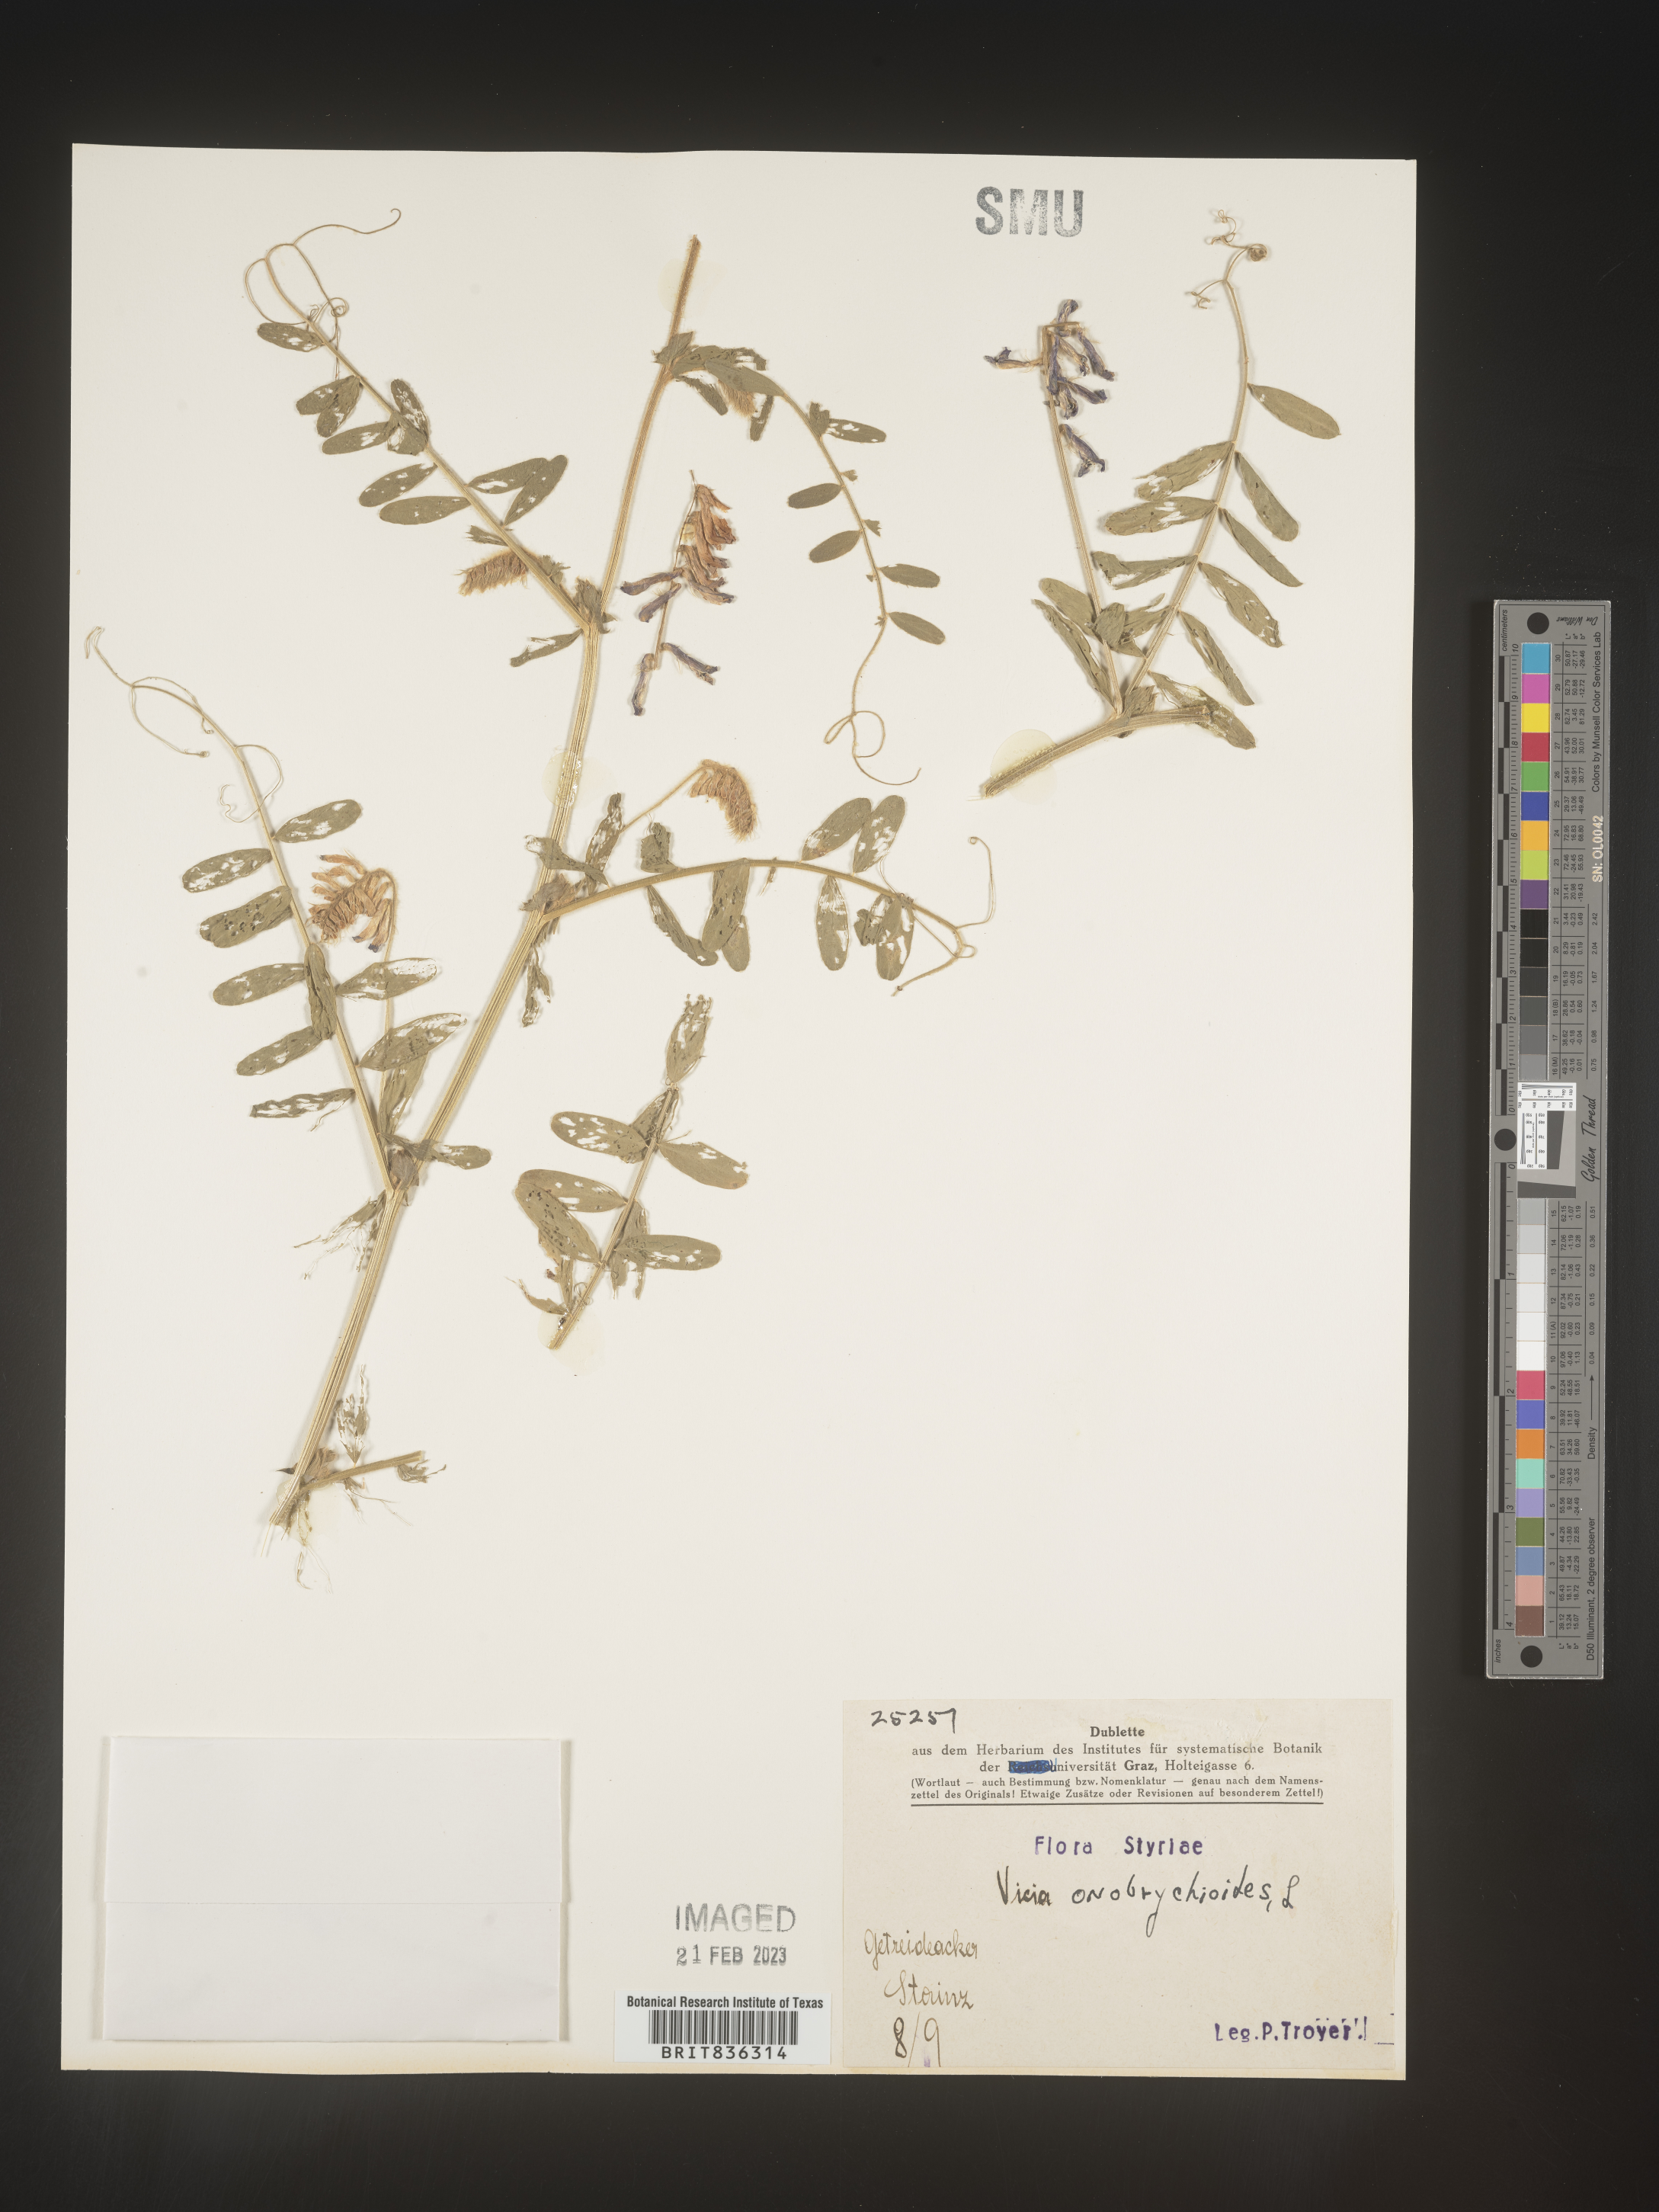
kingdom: Plantae
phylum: Tracheophyta
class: Magnoliopsida
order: Fabales
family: Fabaceae
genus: Vicia
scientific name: Vicia
